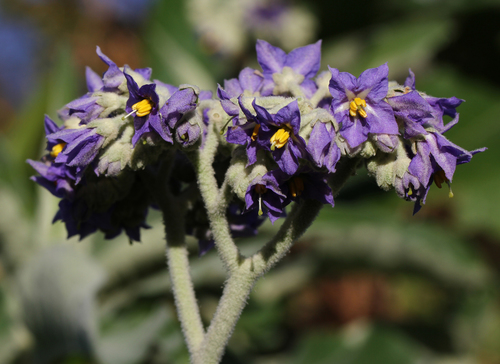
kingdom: Plantae
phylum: Tracheophyta
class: Magnoliopsida
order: Solanales
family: Solanaceae
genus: Solanum
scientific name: Solanum mauritianum
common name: Earleaf nightshade
